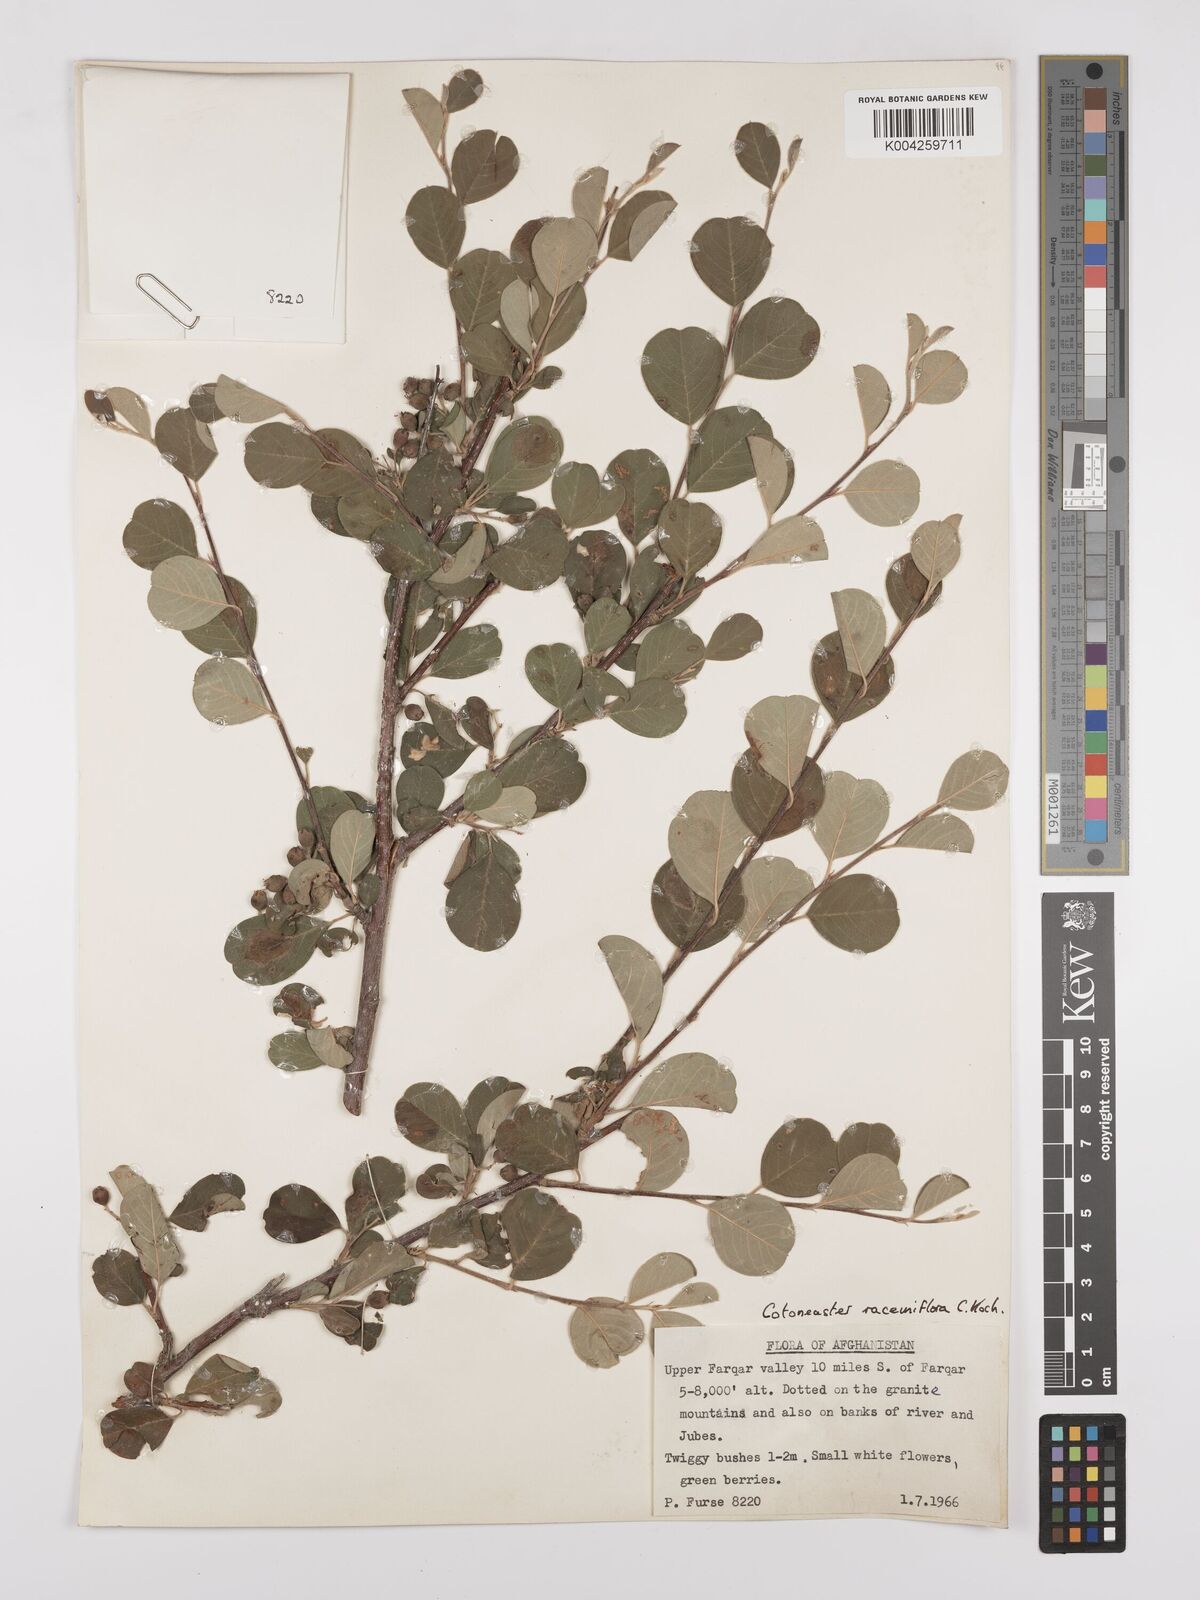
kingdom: Plantae
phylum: Tracheophyta
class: Magnoliopsida
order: Rosales
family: Rosaceae
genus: Cotoneaster
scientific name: Cotoneaster racemiflorus
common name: Cluster-flower cotoneaster
